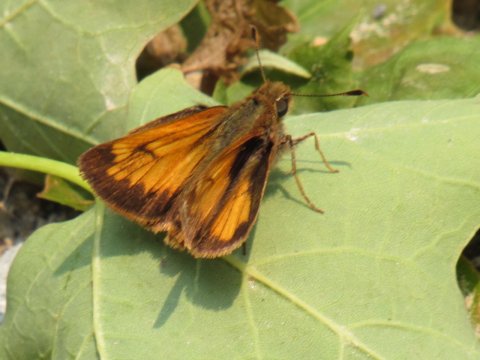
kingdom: Animalia
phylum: Arthropoda
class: Insecta
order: Lepidoptera
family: Hesperiidae
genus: Lon
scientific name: Lon hobomok
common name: Hobomok Skipper
